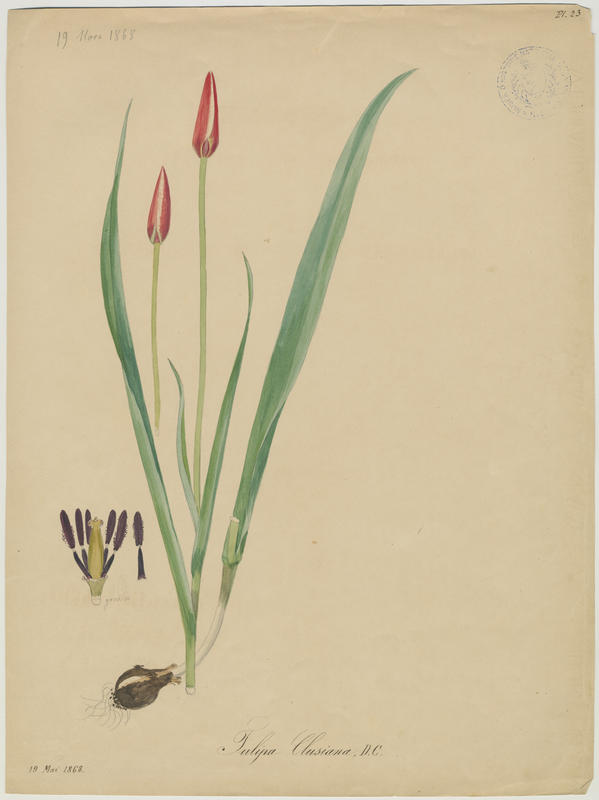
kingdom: Plantae
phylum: Tracheophyta
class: Liliopsida
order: Liliales
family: Liliaceae
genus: Tulipa
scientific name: Tulipa clusiana
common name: Lady tulip
